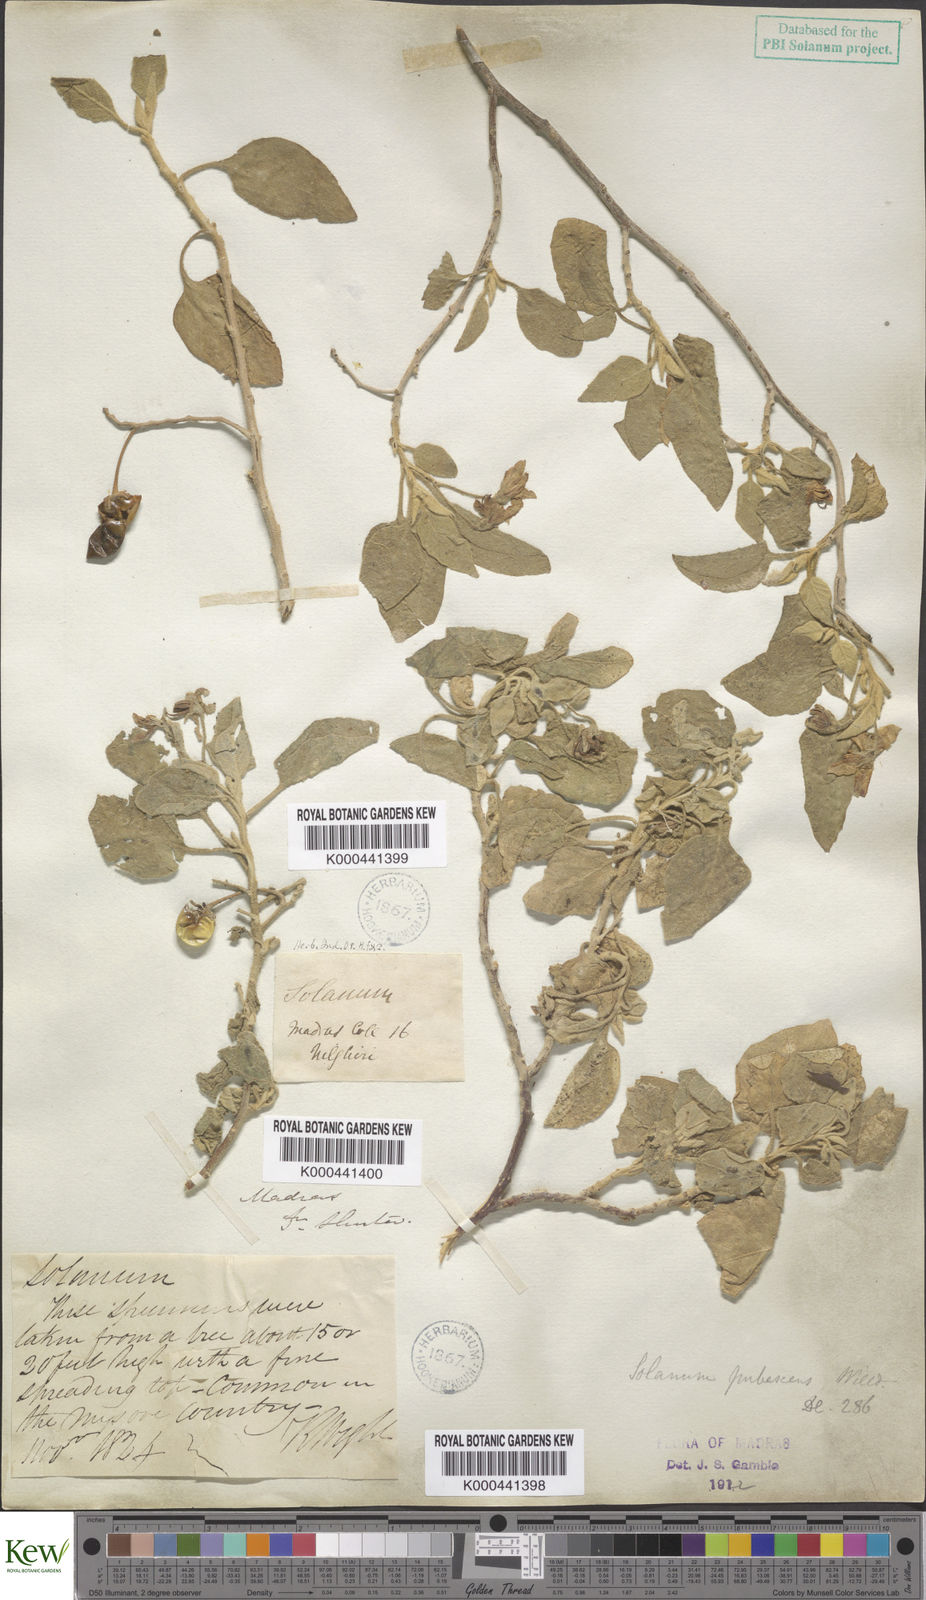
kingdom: Plantae
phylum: Tracheophyta
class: Magnoliopsida
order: Solanales
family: Solanaceae
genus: Solanum
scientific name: Solanum pubescens
